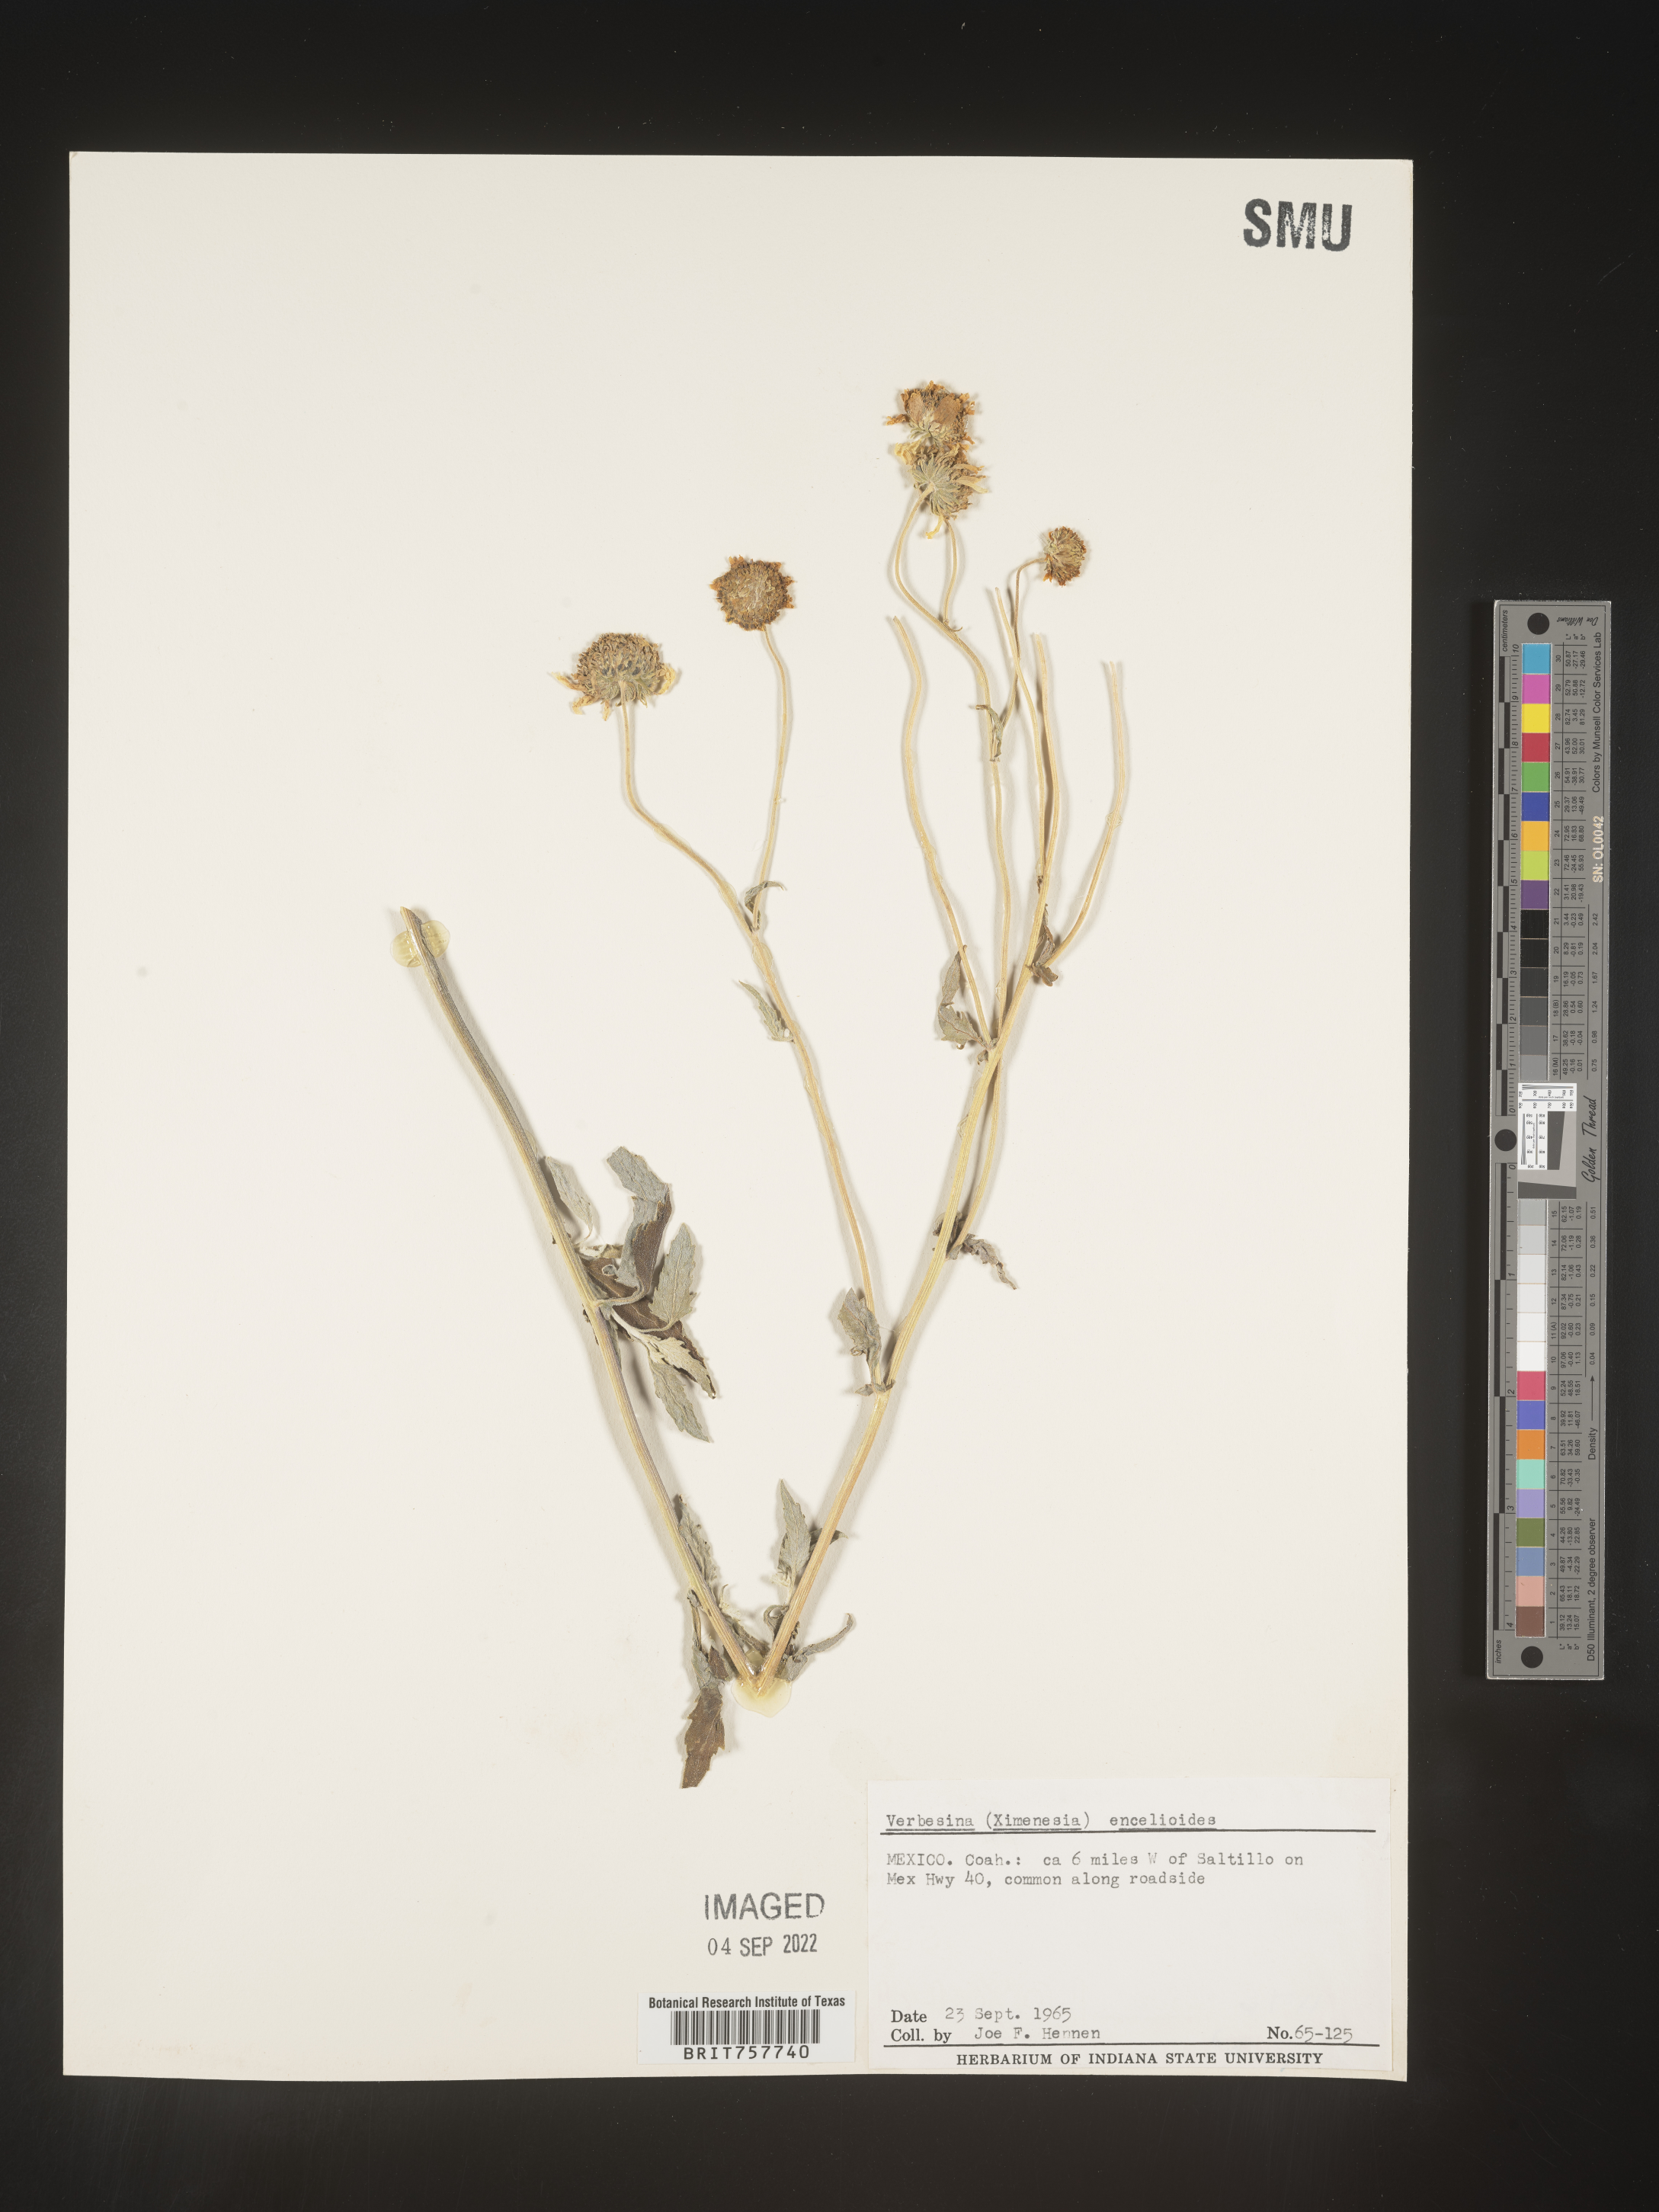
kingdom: Plantae
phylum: Tracheophyta
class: Magnoliopsida
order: Asterales
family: Asteraceae
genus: Verbesina
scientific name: Verbesina
